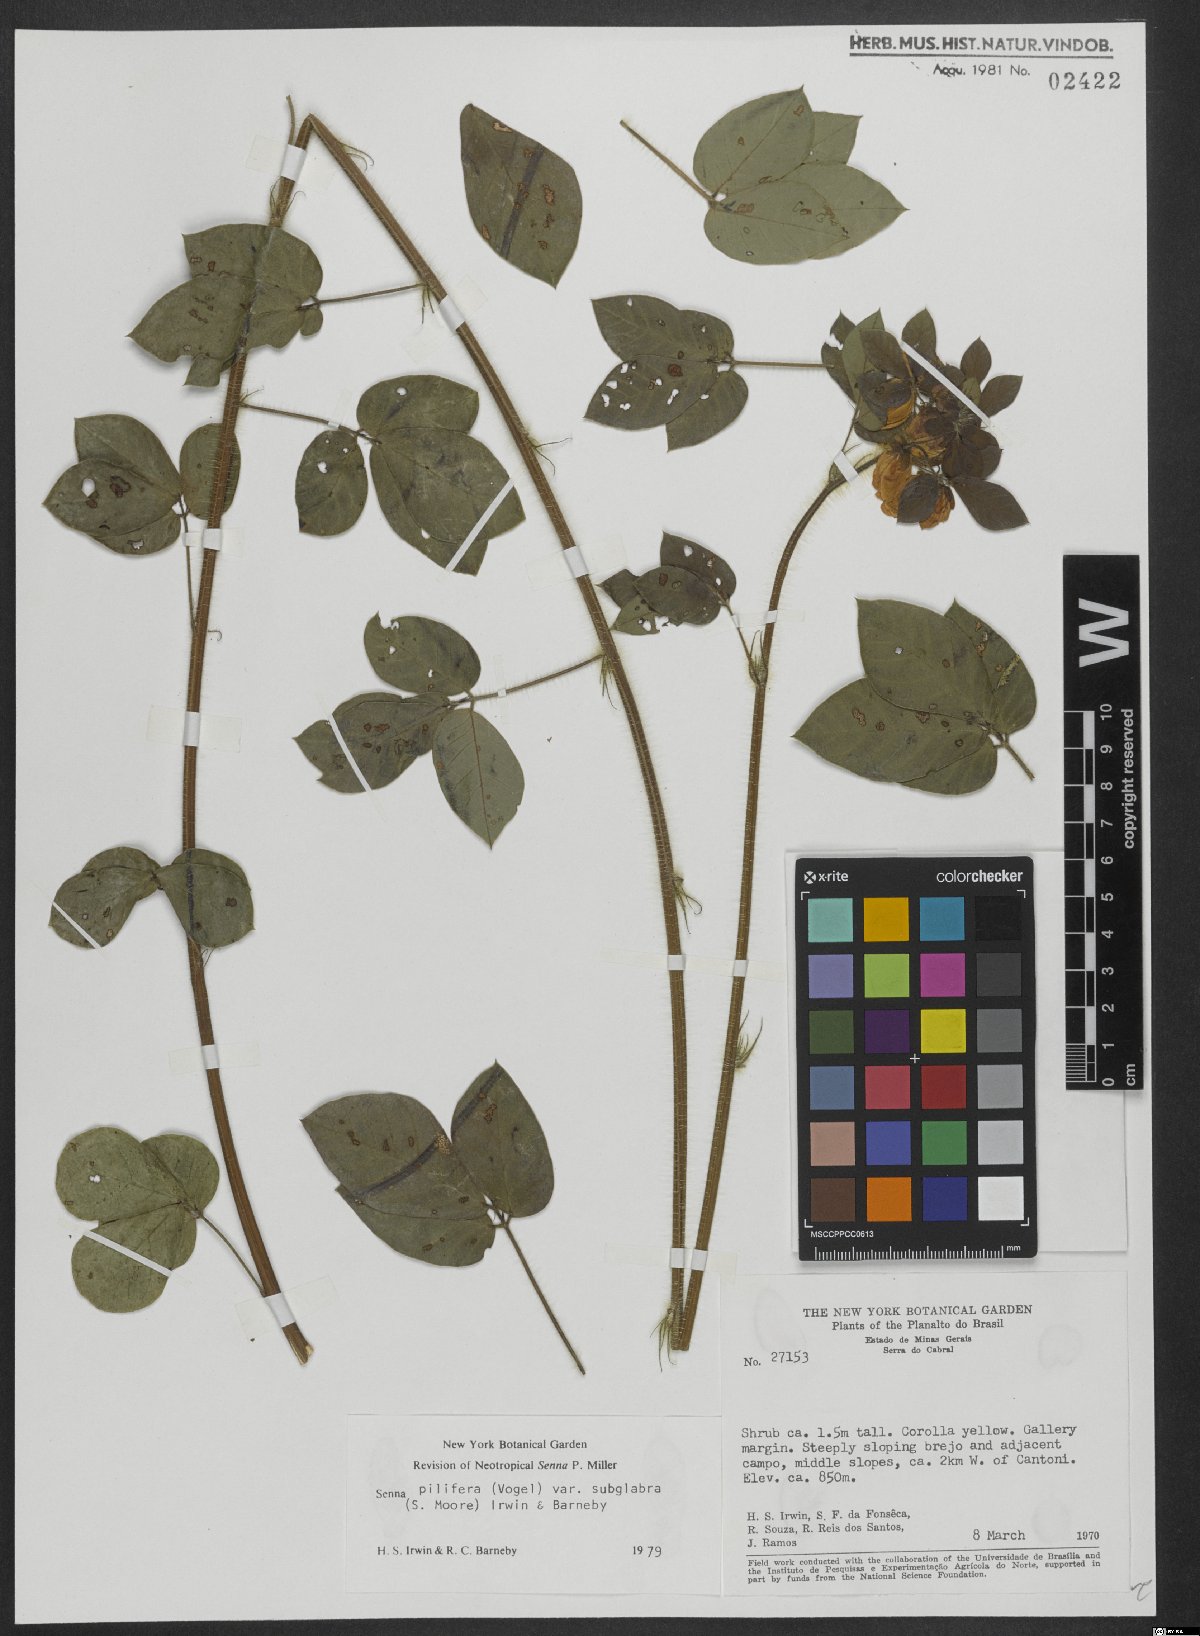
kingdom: Plantae
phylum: Tracheophyta
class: Magnoliopsida
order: Fabales
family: Fabaceae
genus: Senna
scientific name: Senna pilifera
